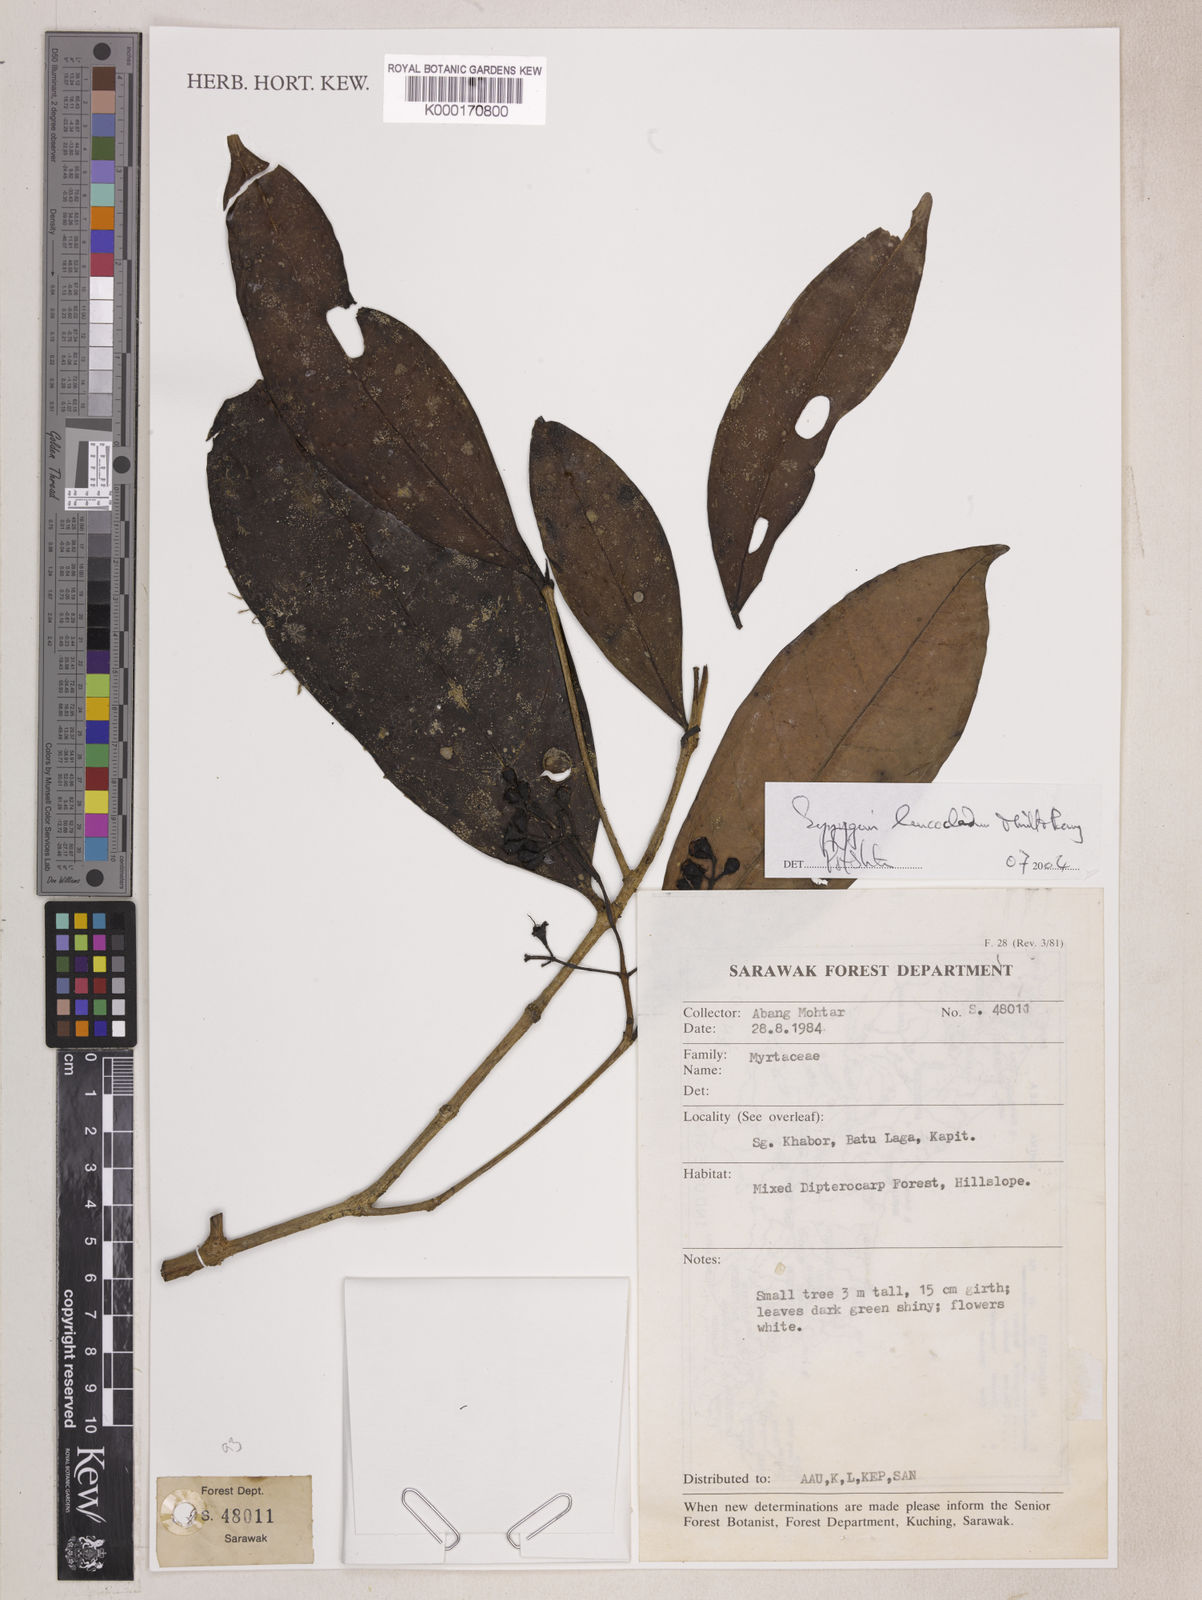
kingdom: Plantae
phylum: Tracheophyta
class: Magnoliopsida
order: Myrtales
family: Myrtaceae
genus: Syzygium
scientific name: Syzygium leucocladum
